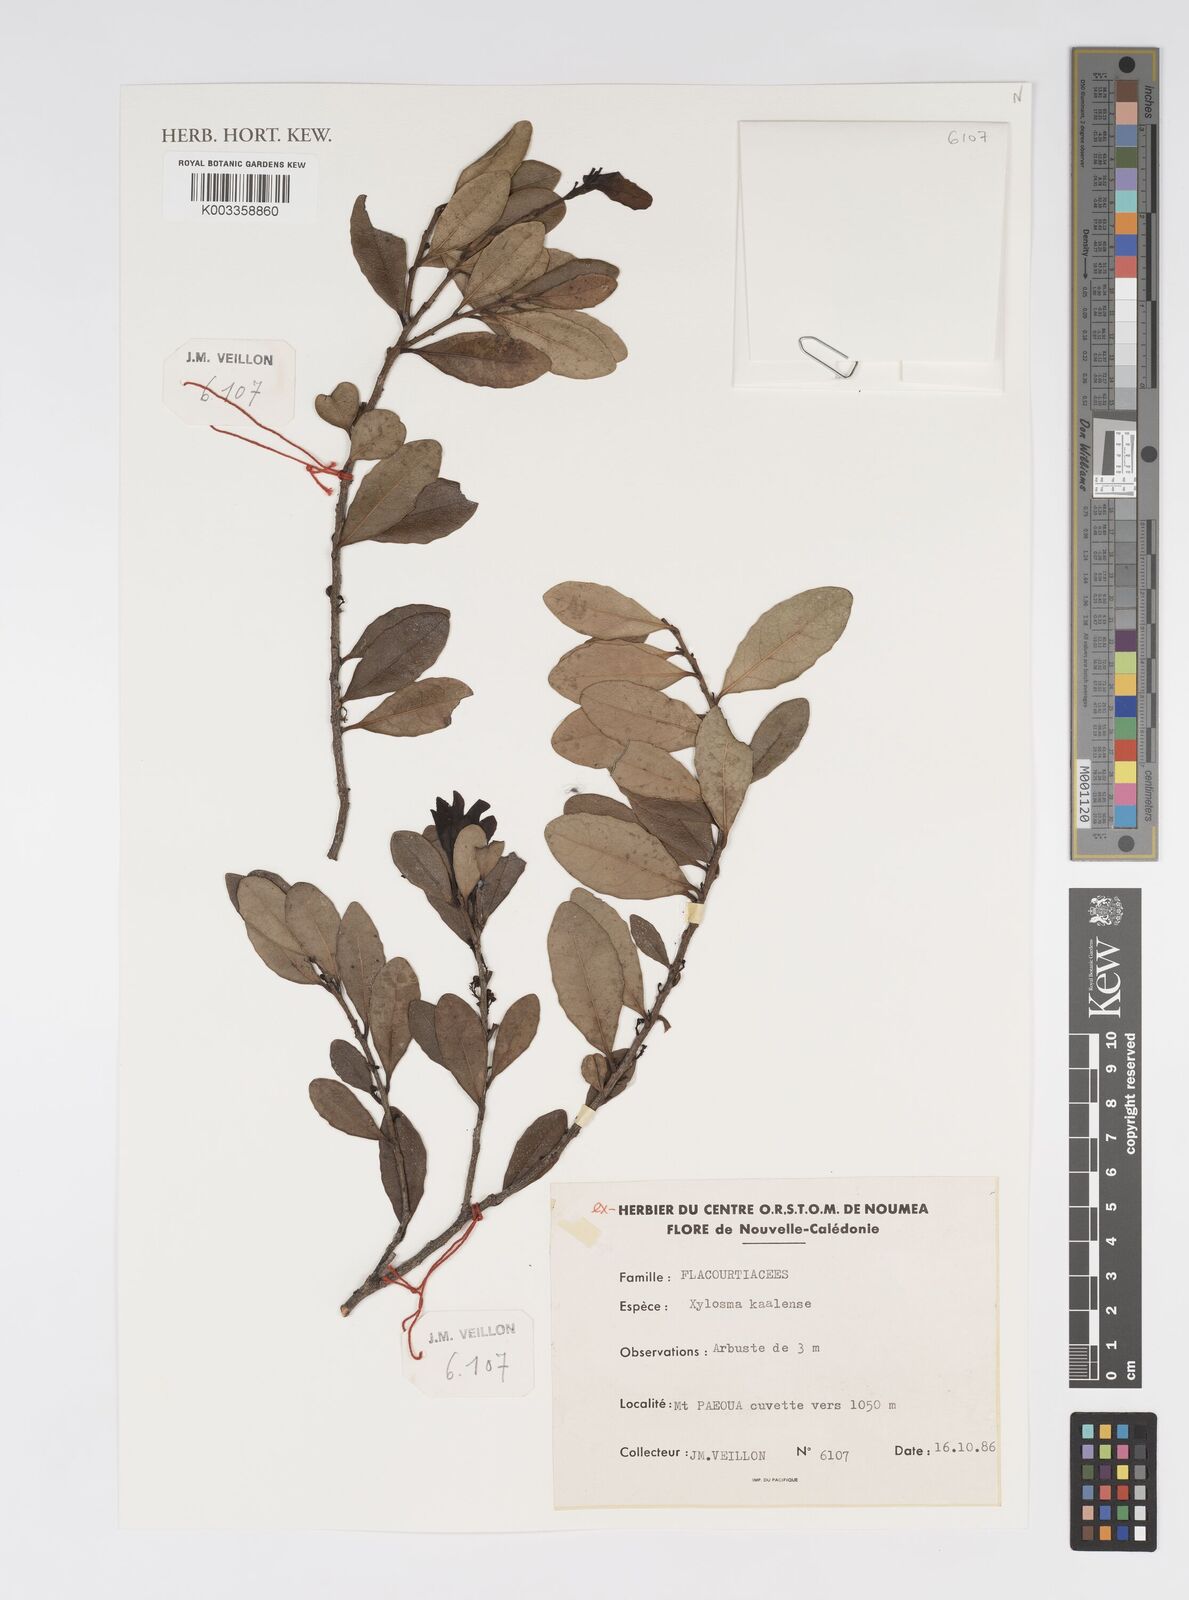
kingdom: Plantae
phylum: Tracheophyta
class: Magnoliopsida
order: Malpighiales
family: Salicaceae
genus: Xylosma
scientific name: Xylosma kaalaensis
